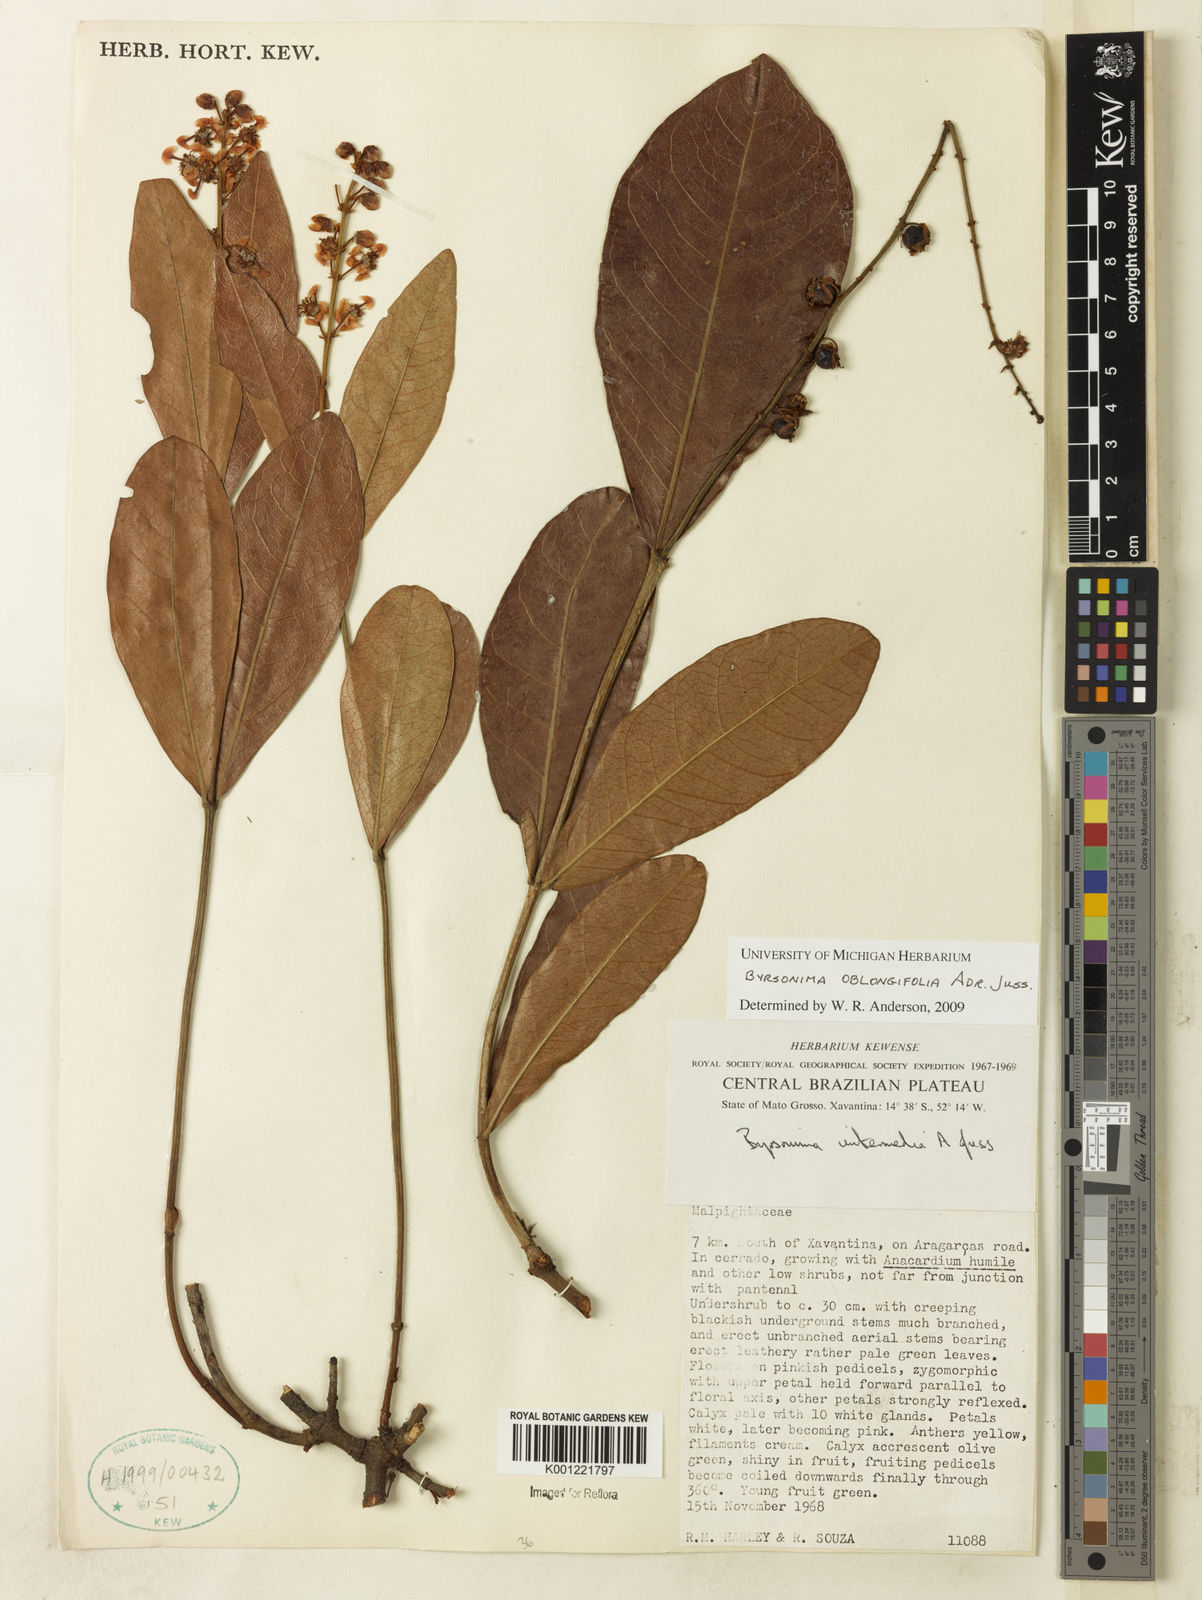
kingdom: Plantae
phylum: Tracheophyta
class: Magnoliopsida
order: Malpighiales
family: Malpighiaceae
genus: Byrsonima
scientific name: Byrsonima oblongifolia
